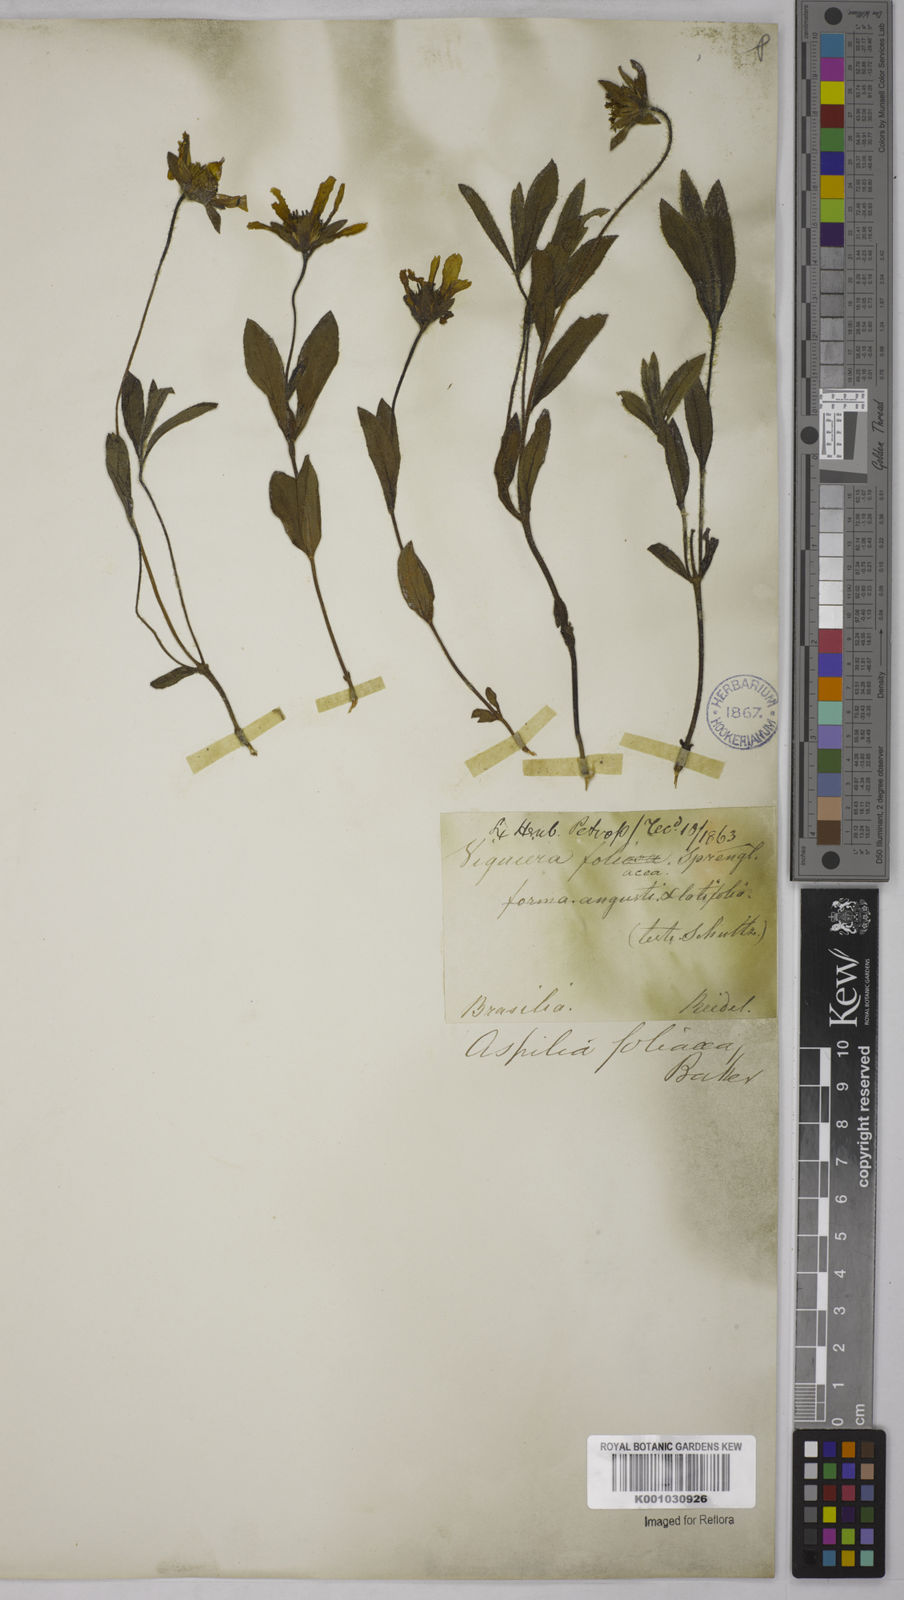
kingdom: Plantae
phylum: Tracheophyta
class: Magnoliopsida
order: Asterales
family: Asteraceae
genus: Wedelia
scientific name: Wedelia foliacea
